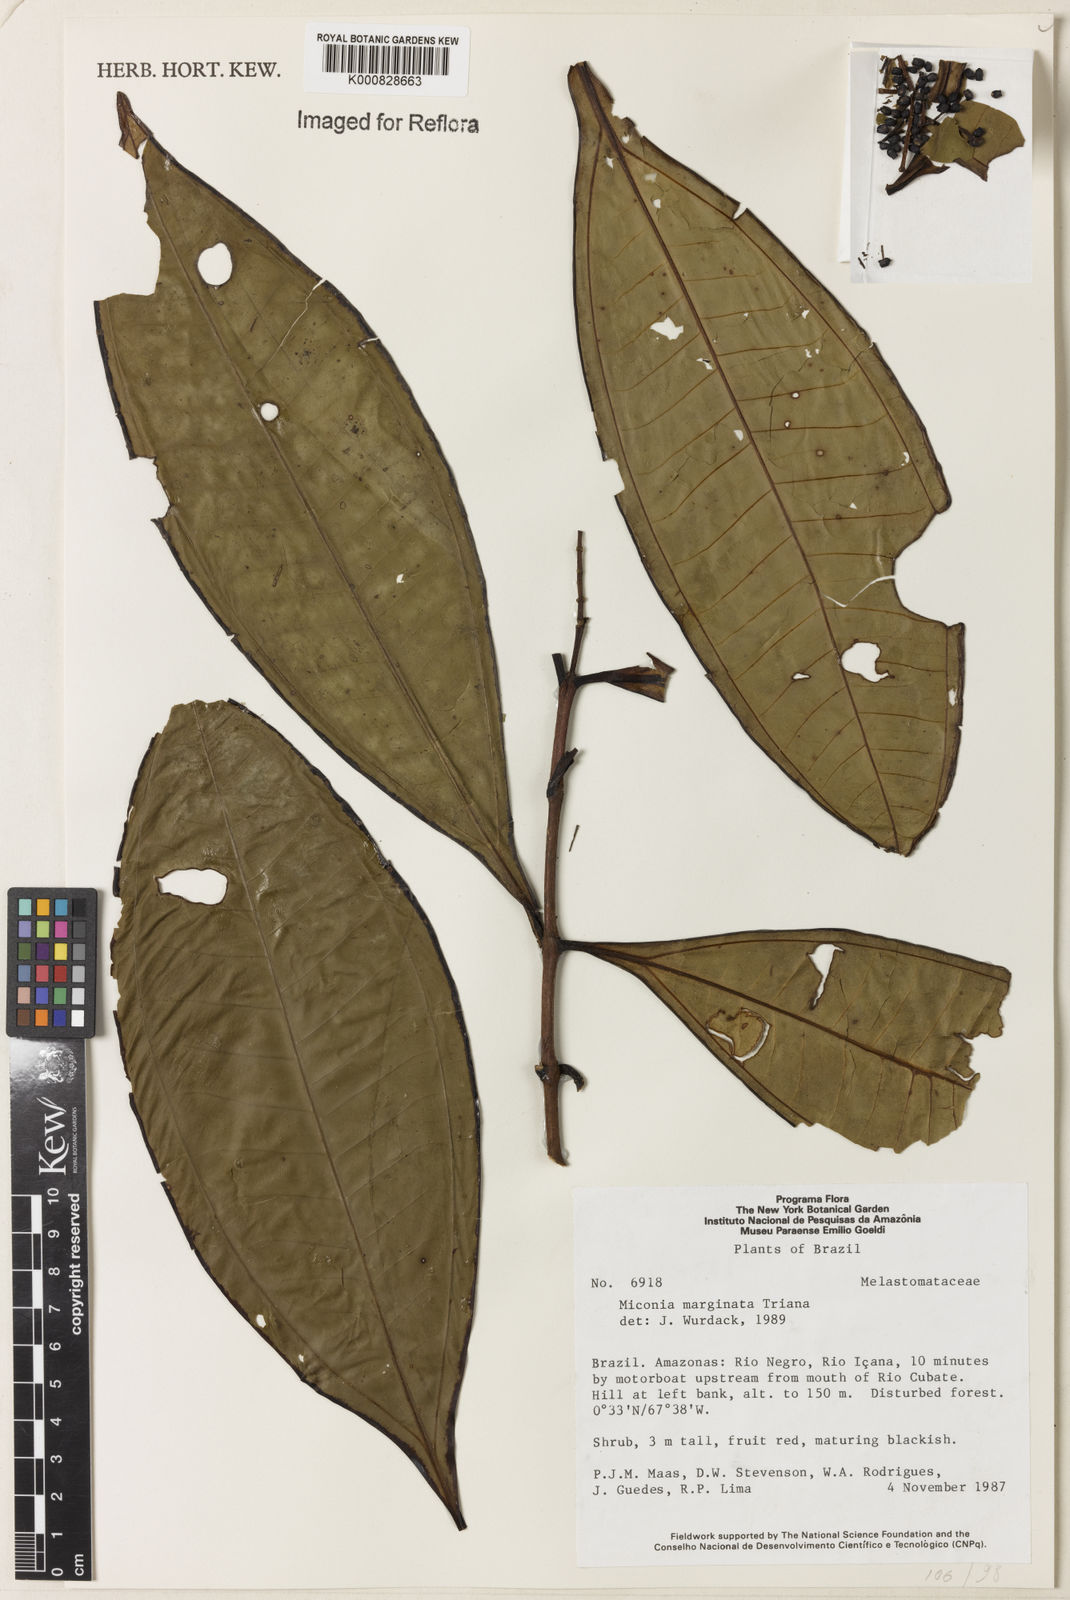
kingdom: Plantae
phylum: Tracheophyta
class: Magnoliopsida
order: Myrtales
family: Melastomataceae
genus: Miconia
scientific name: Miconia marginata
